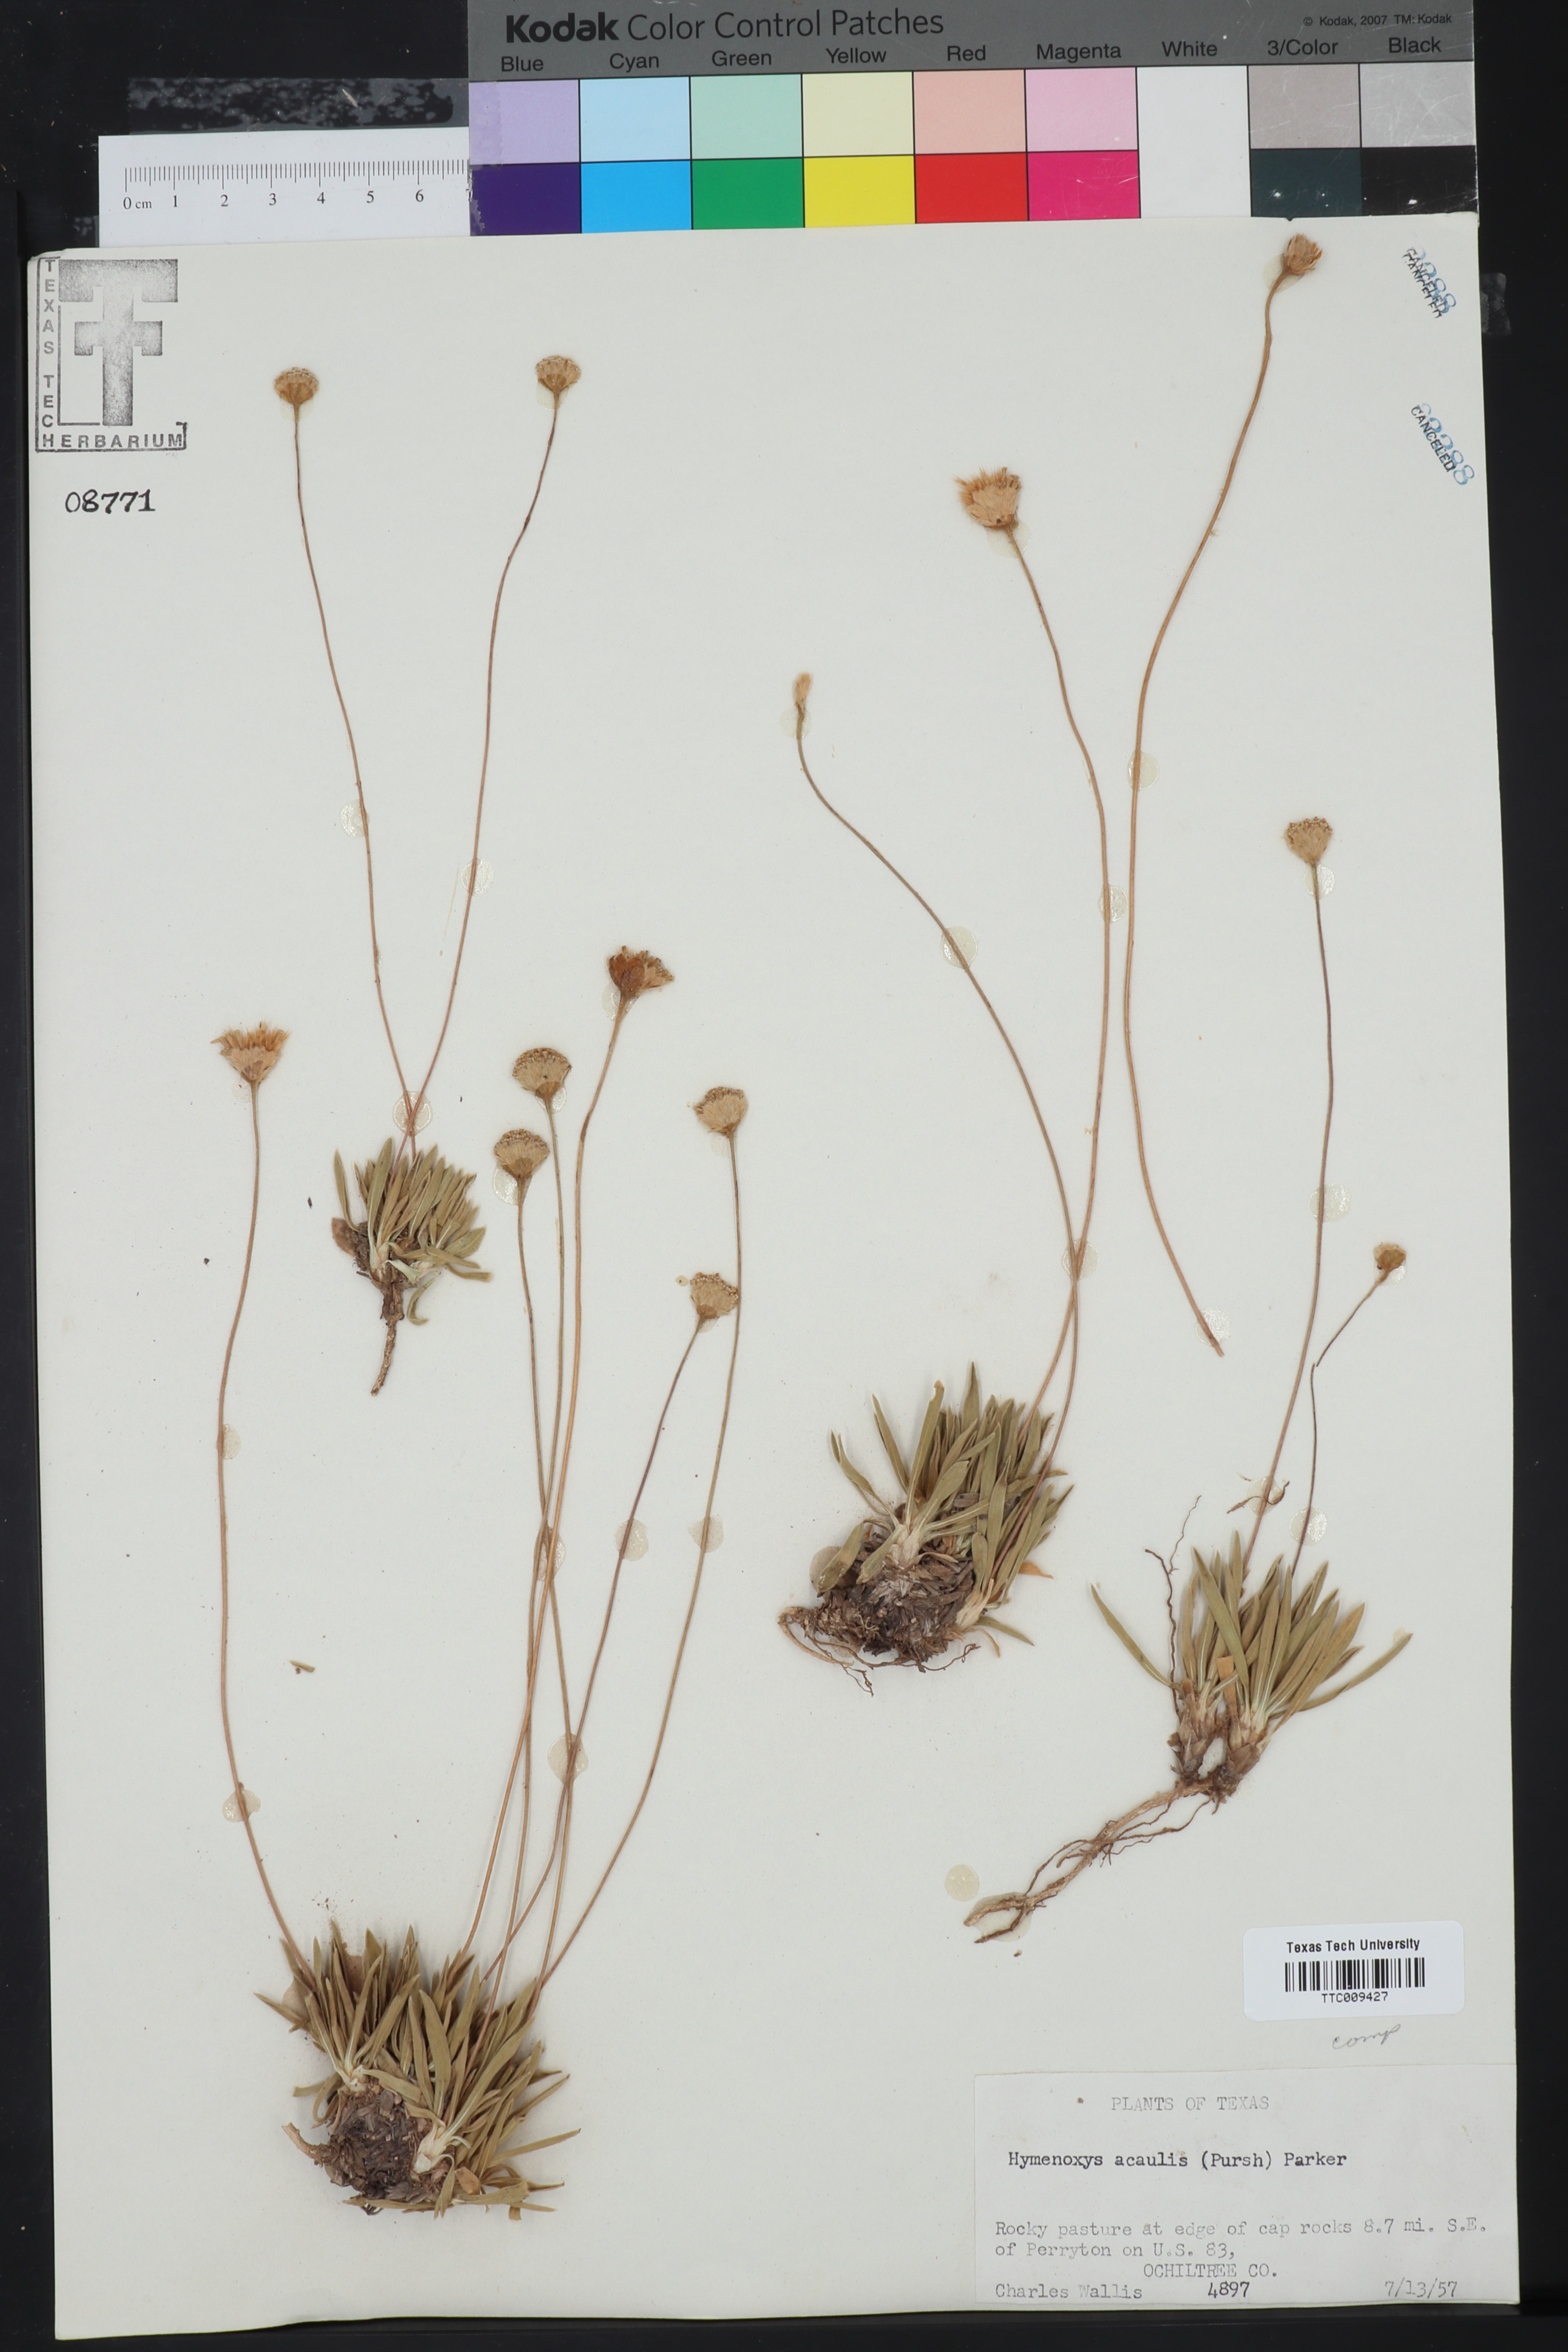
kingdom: Plantae
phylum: Tracheophyta
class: Magnoliopsida
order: Asterales
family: Asteraceae
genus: Tetraneuris
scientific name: Tetraneuris acaulis
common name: Butte marigold
